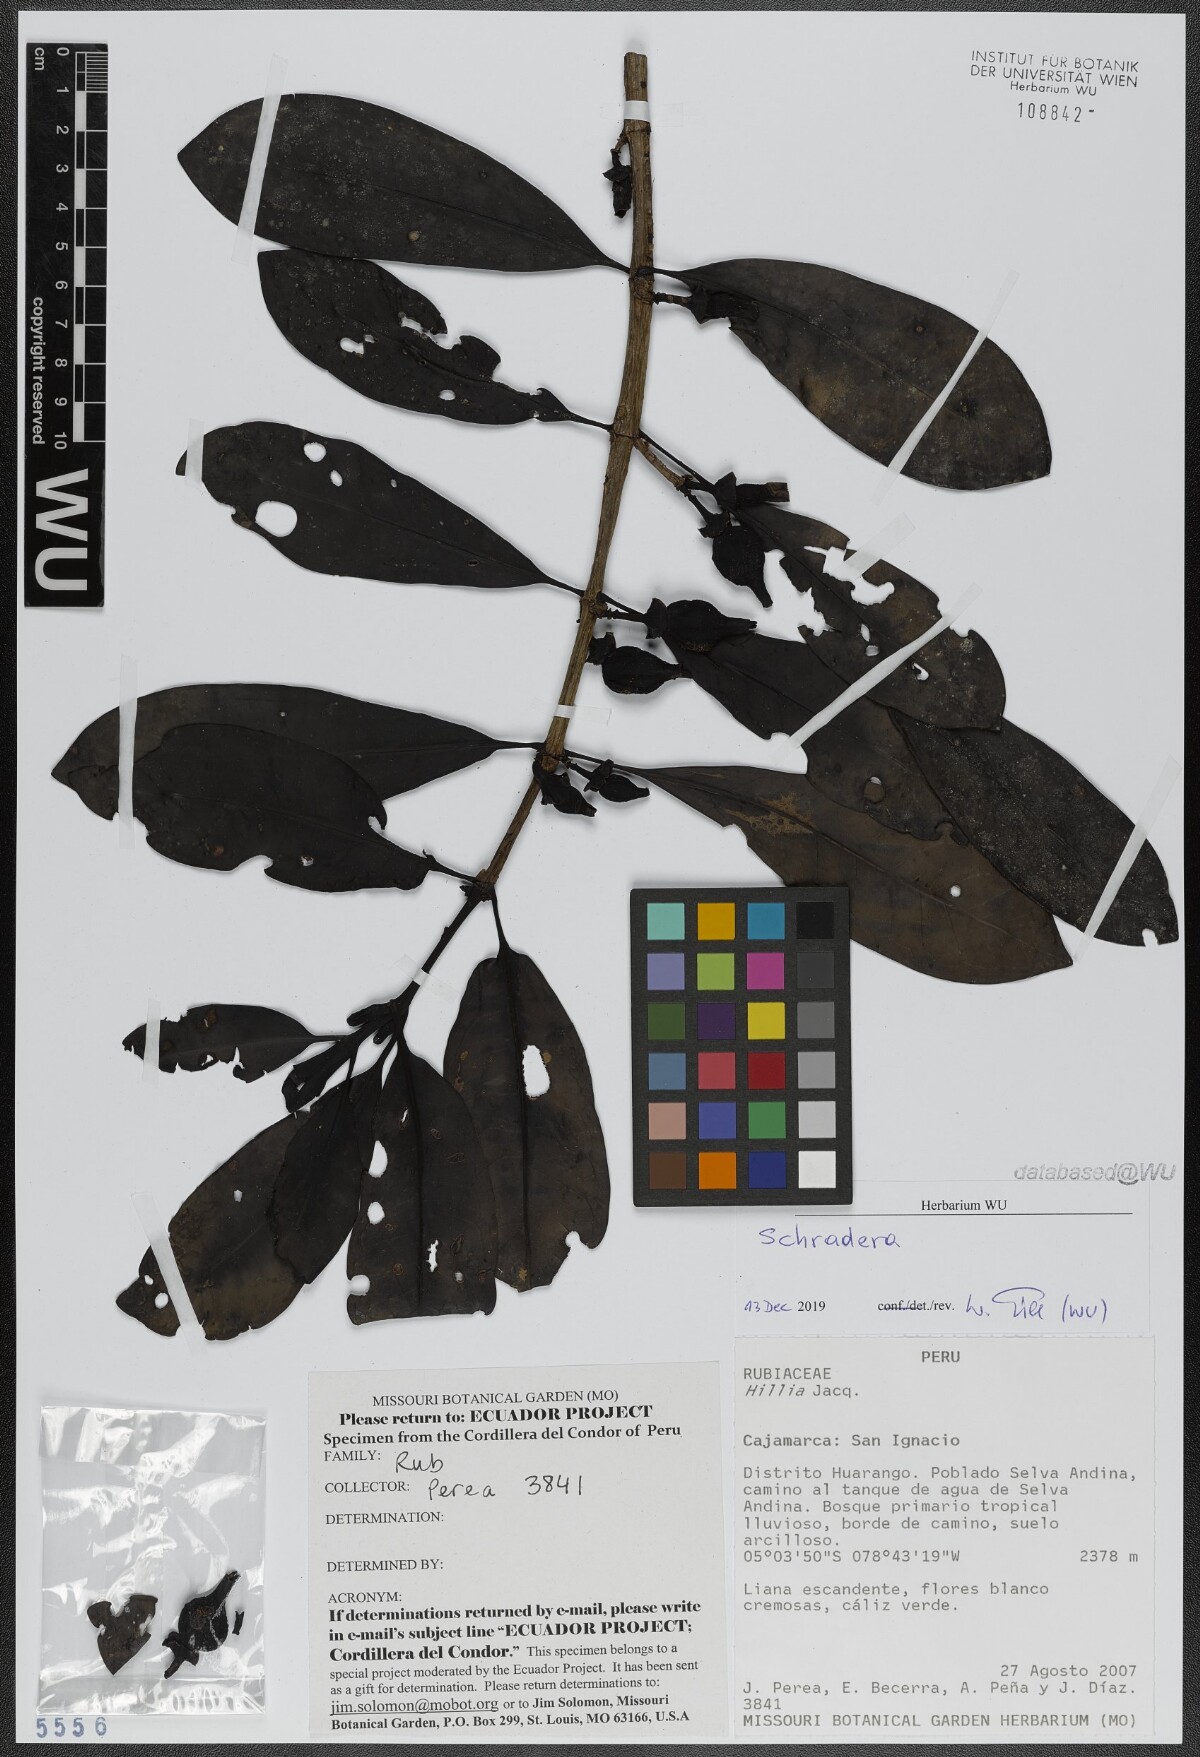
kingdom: Plantae
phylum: Tracheophyta
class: Magnoliopsida
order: Gentianales
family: Rubiaceae
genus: Schradera
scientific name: Schradera
